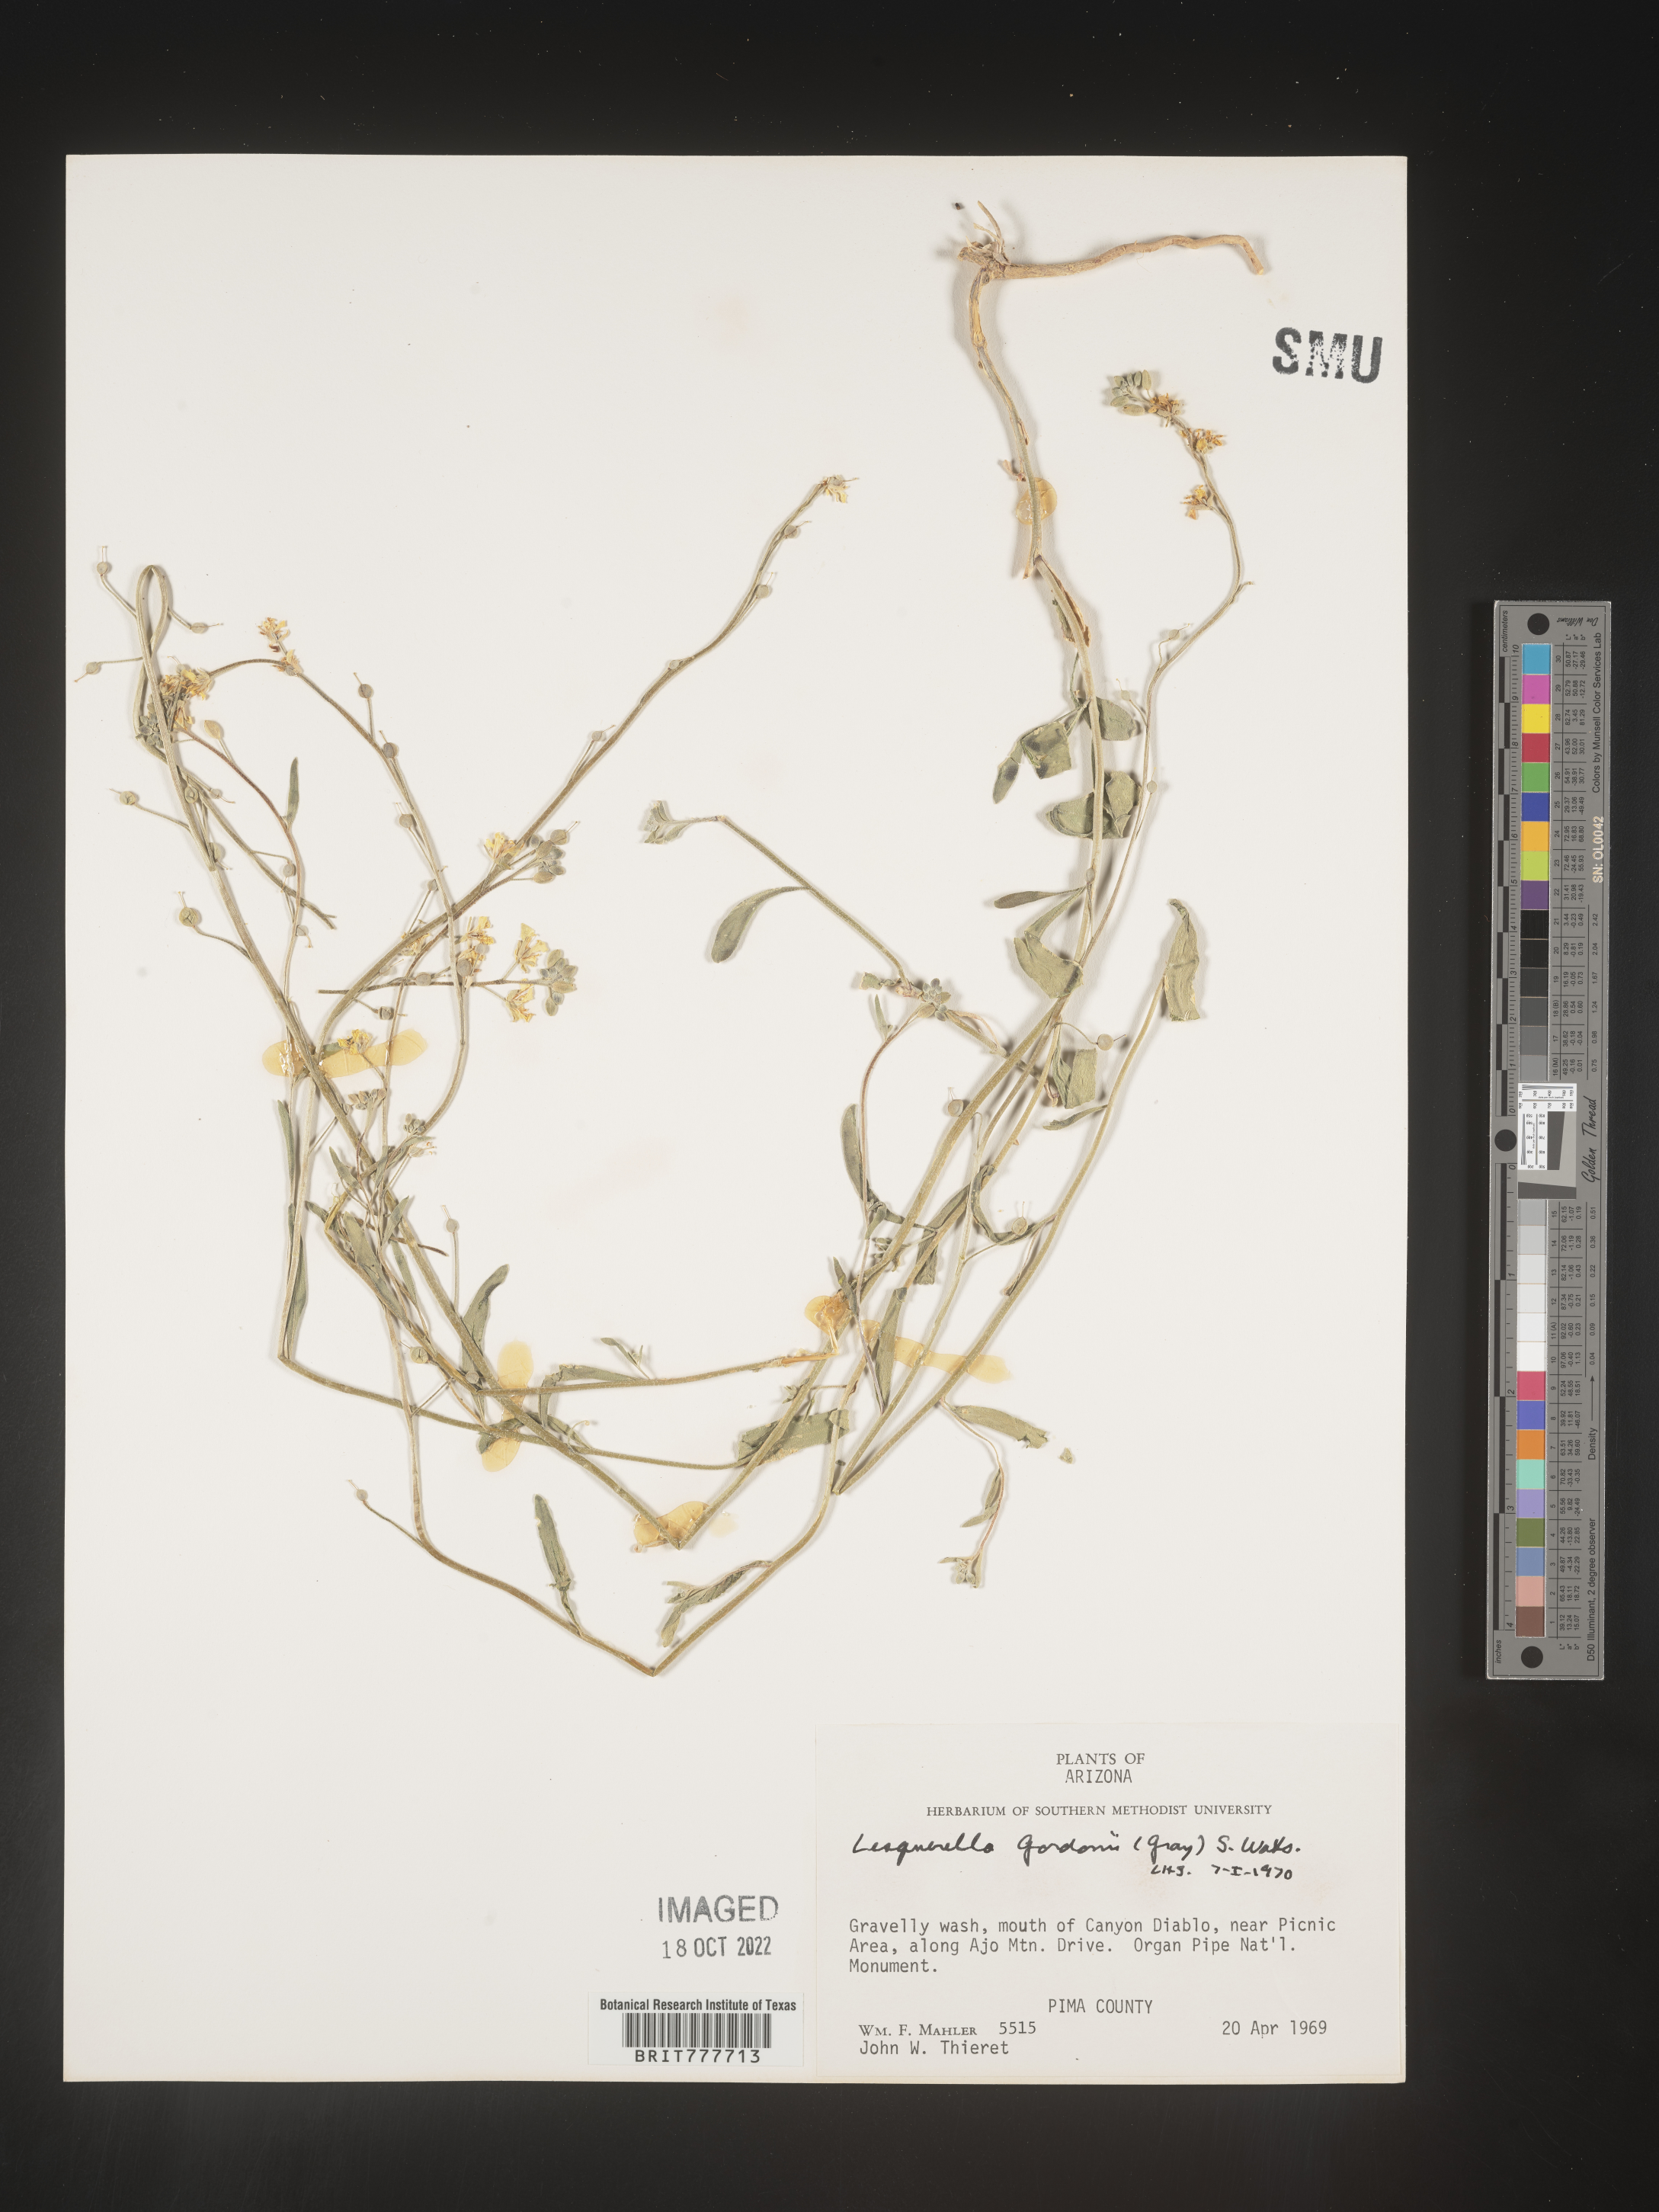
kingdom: Chromista
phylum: Cercozoa
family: Psammonobiotidae
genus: Lesquerella
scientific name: Lesquerella
